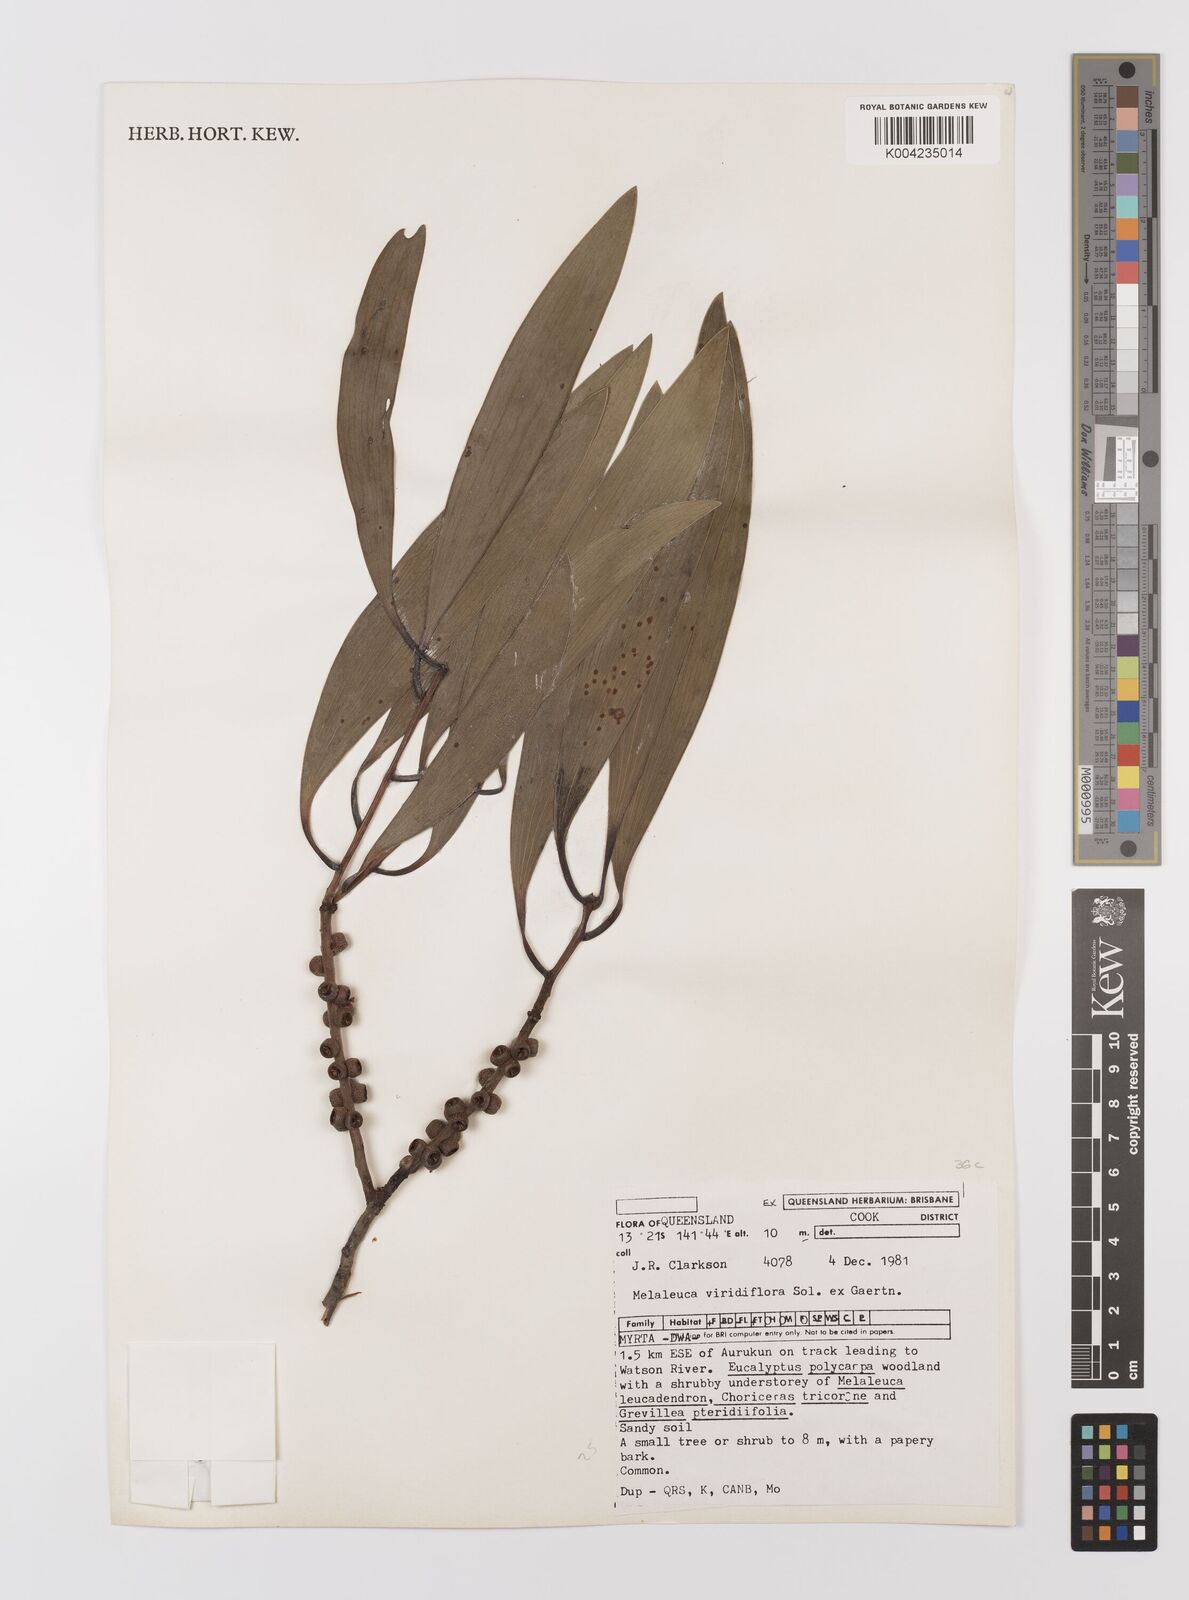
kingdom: Plantae
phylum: Tracheophyta
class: Magnoliopsida
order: Myrtales
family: Myrtaceae
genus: Melaleuca
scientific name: Melaleuca viridiflora
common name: Brown-leaved paperbark
